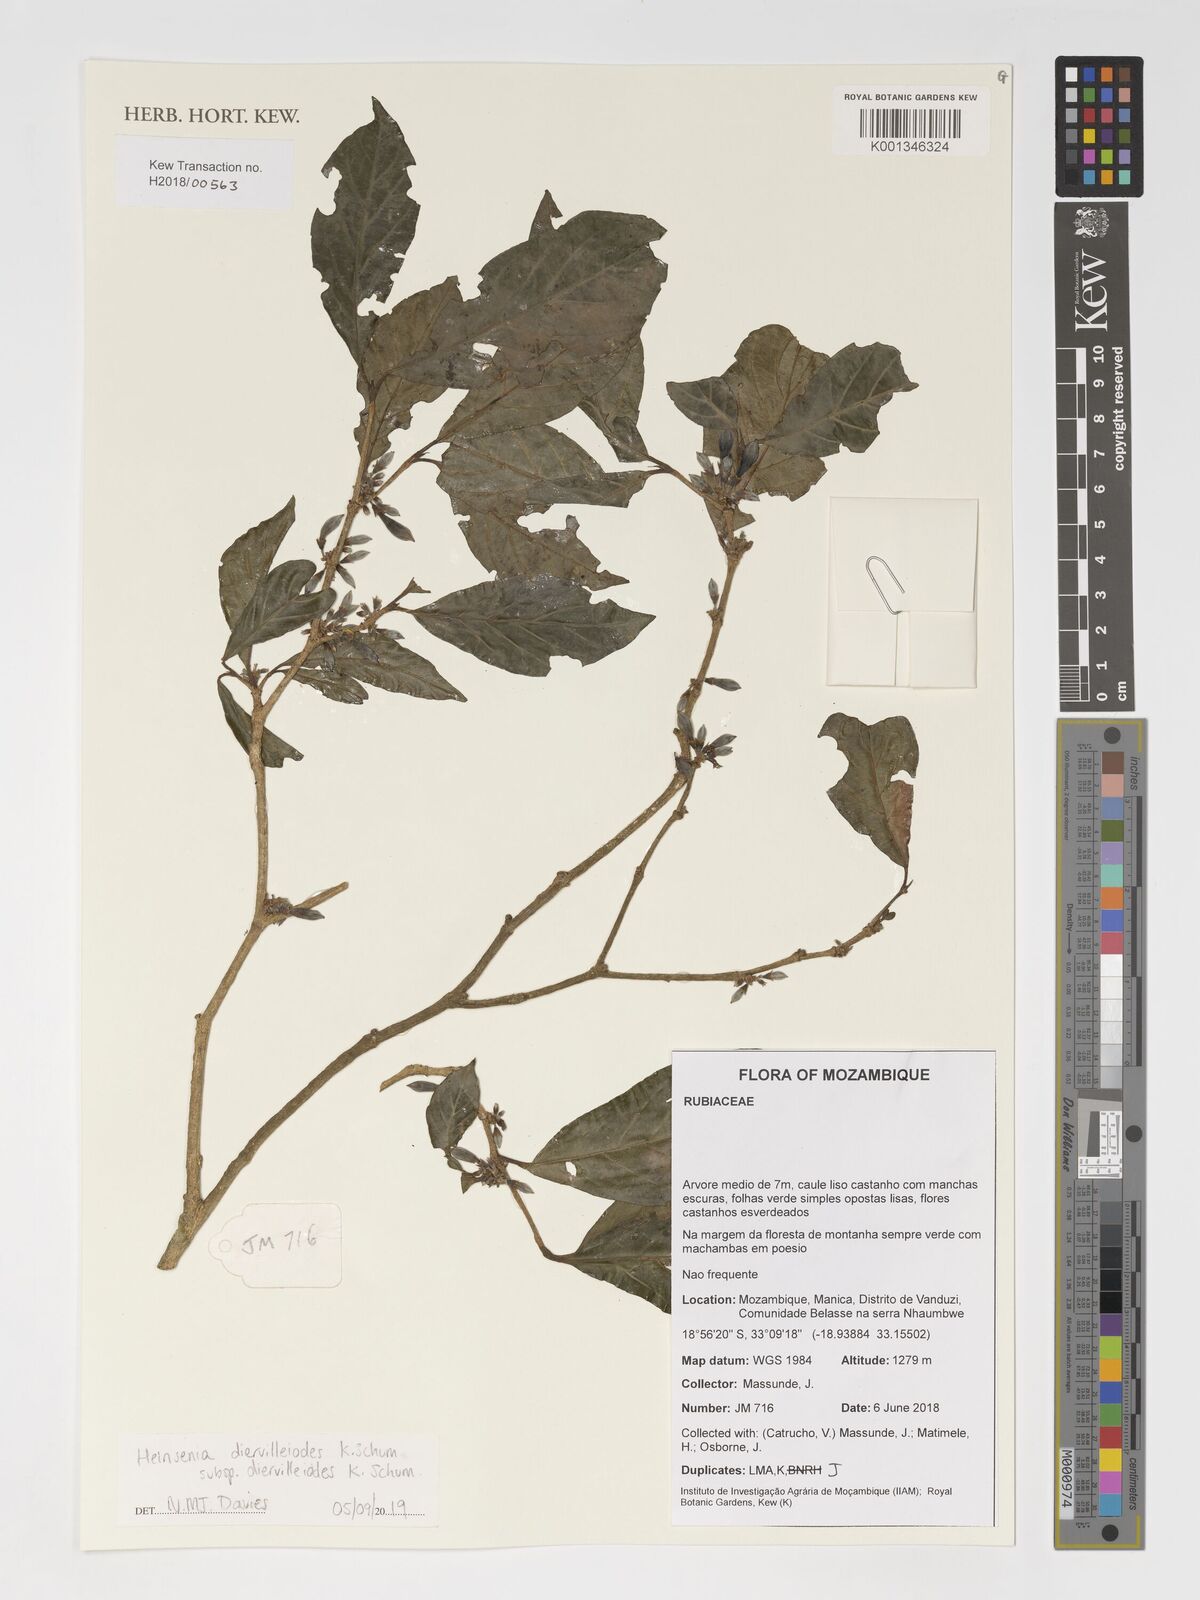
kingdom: Plantae
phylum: Tracheophyta
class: Magnoliopsida
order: Gentianales
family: Rubiaceae
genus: Heinsenia
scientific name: Heinsenia diervilleoides
